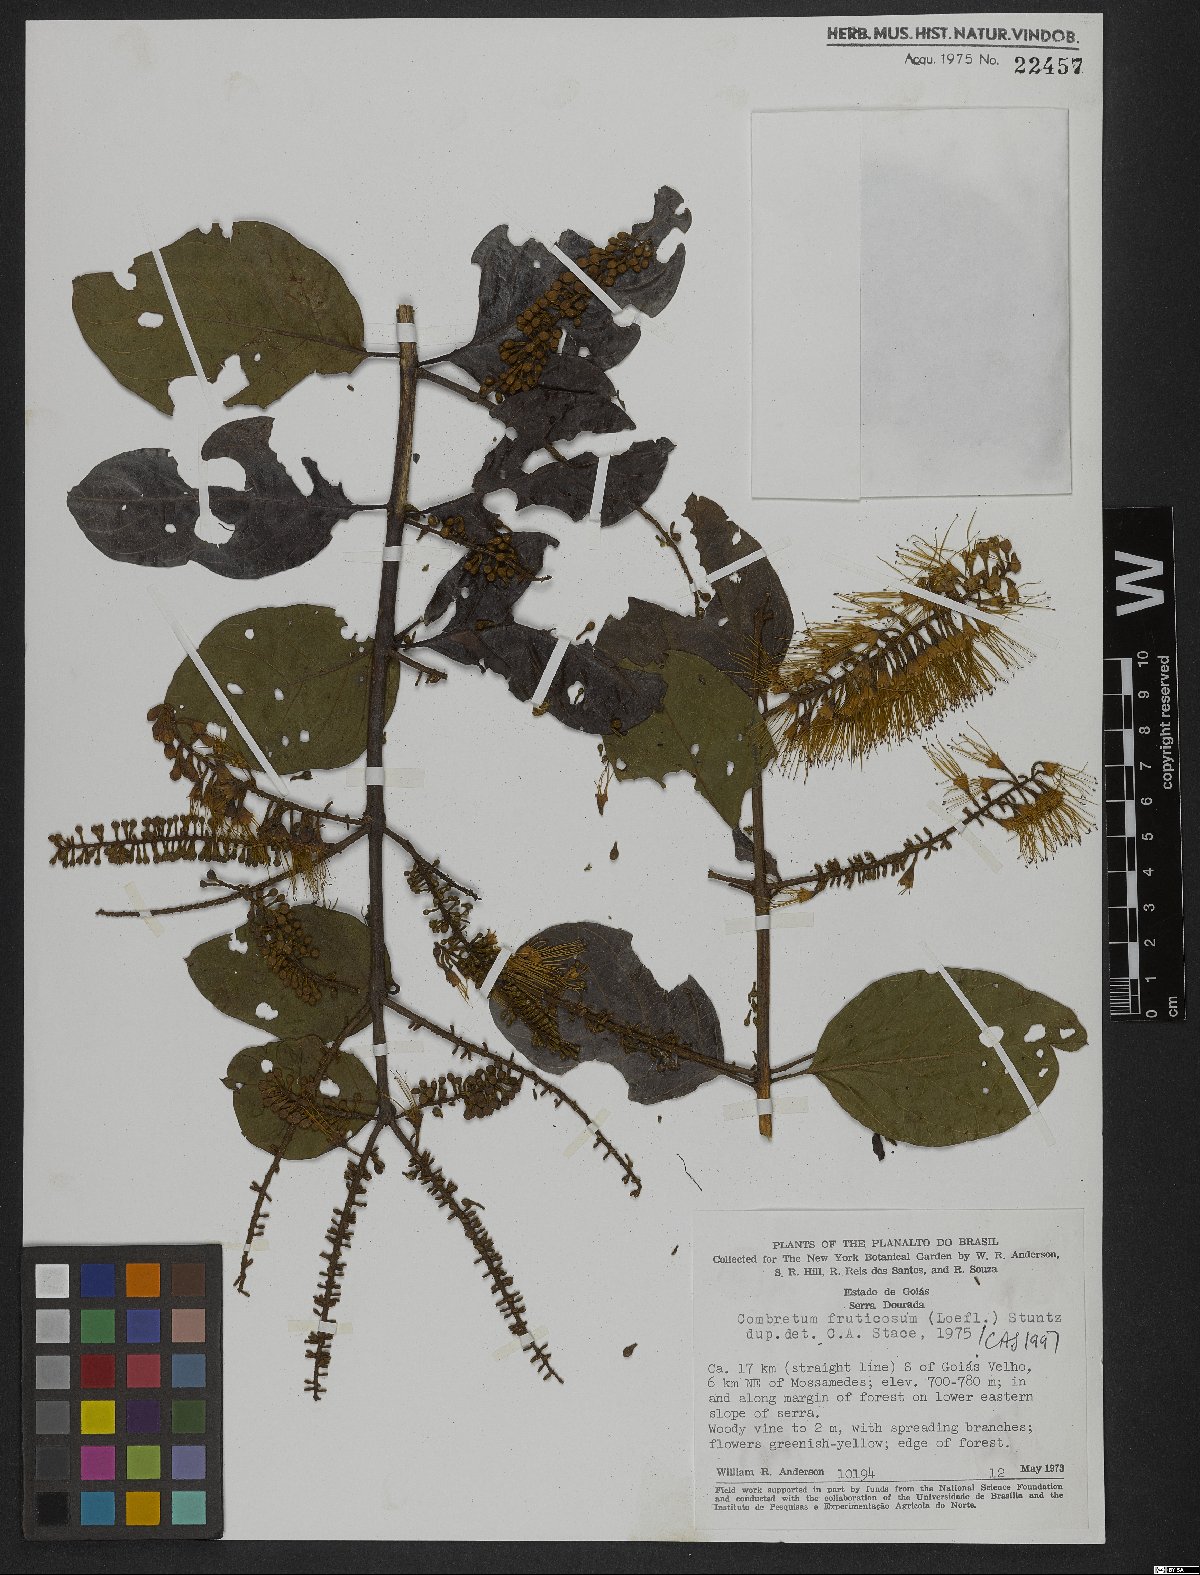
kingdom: Plantae
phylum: Tracheophyta
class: Magnoliopsida
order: Myrtales
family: Combretaceae
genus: Combretum
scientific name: Combretum fruticosum
